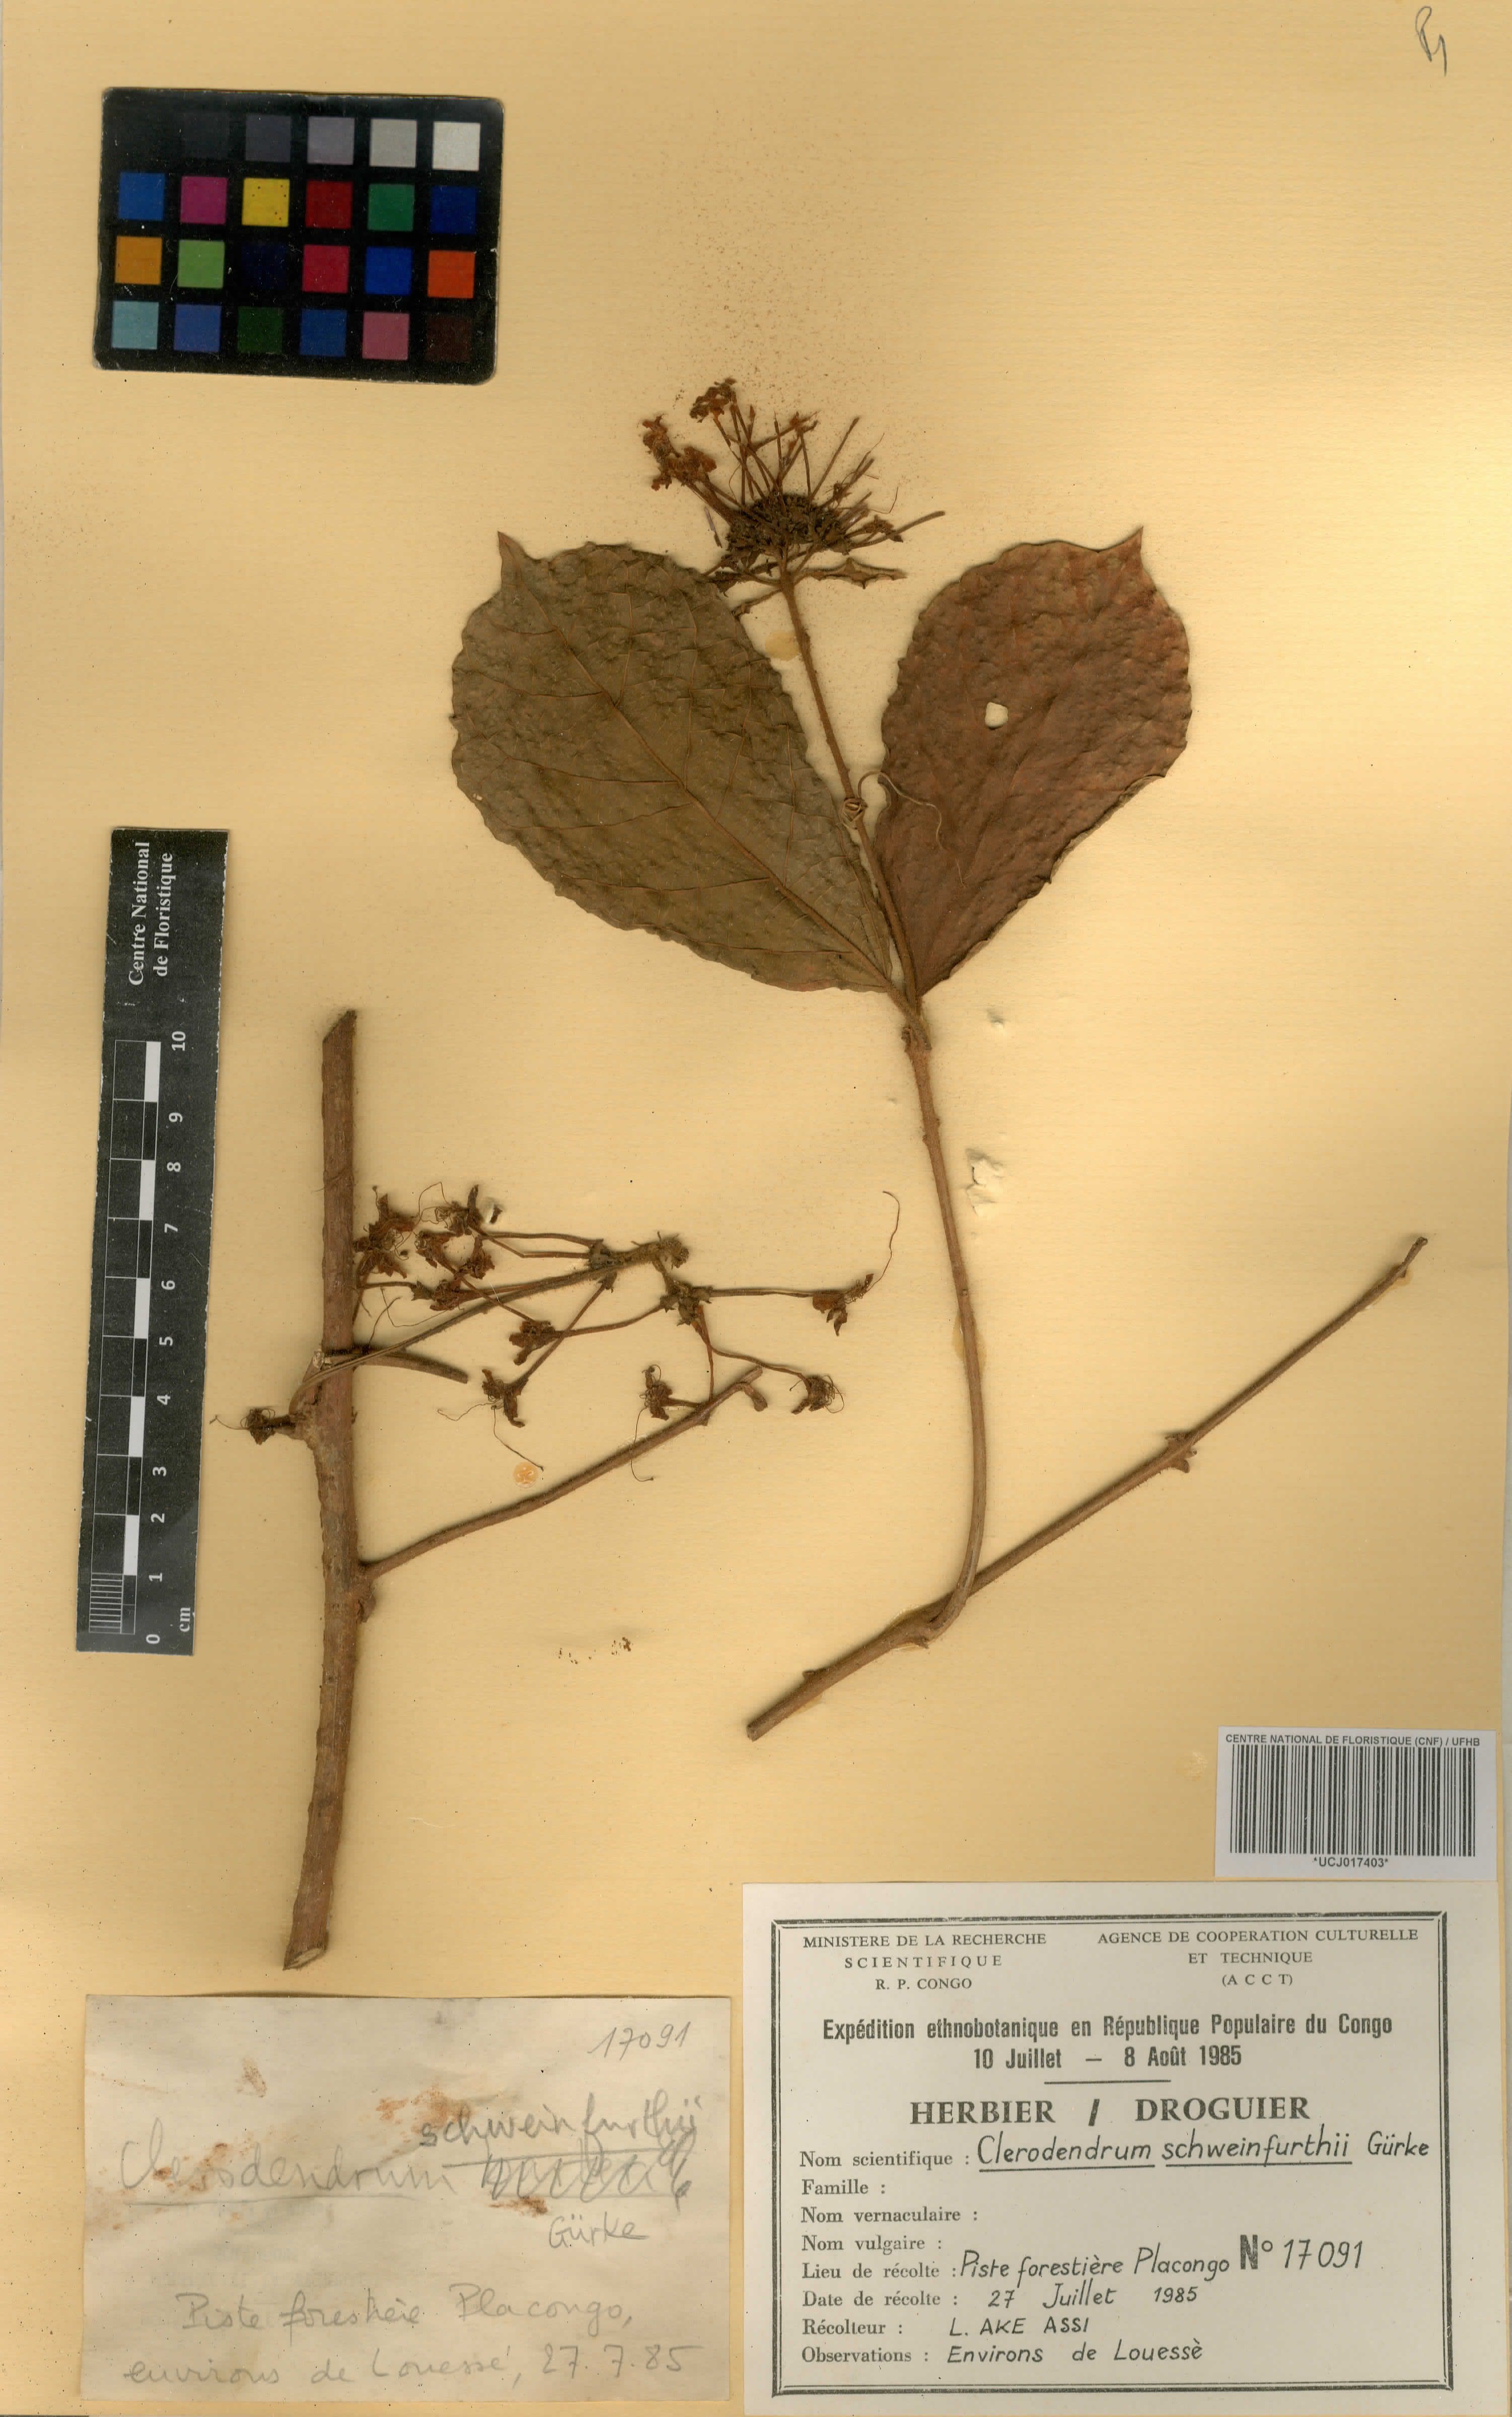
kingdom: Plantae
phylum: Tracheophyta
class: Magnoliopsida
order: Lamiales
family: Lamiaceae
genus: Clerodendrum
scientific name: Clerodendrum schweinfurthii
